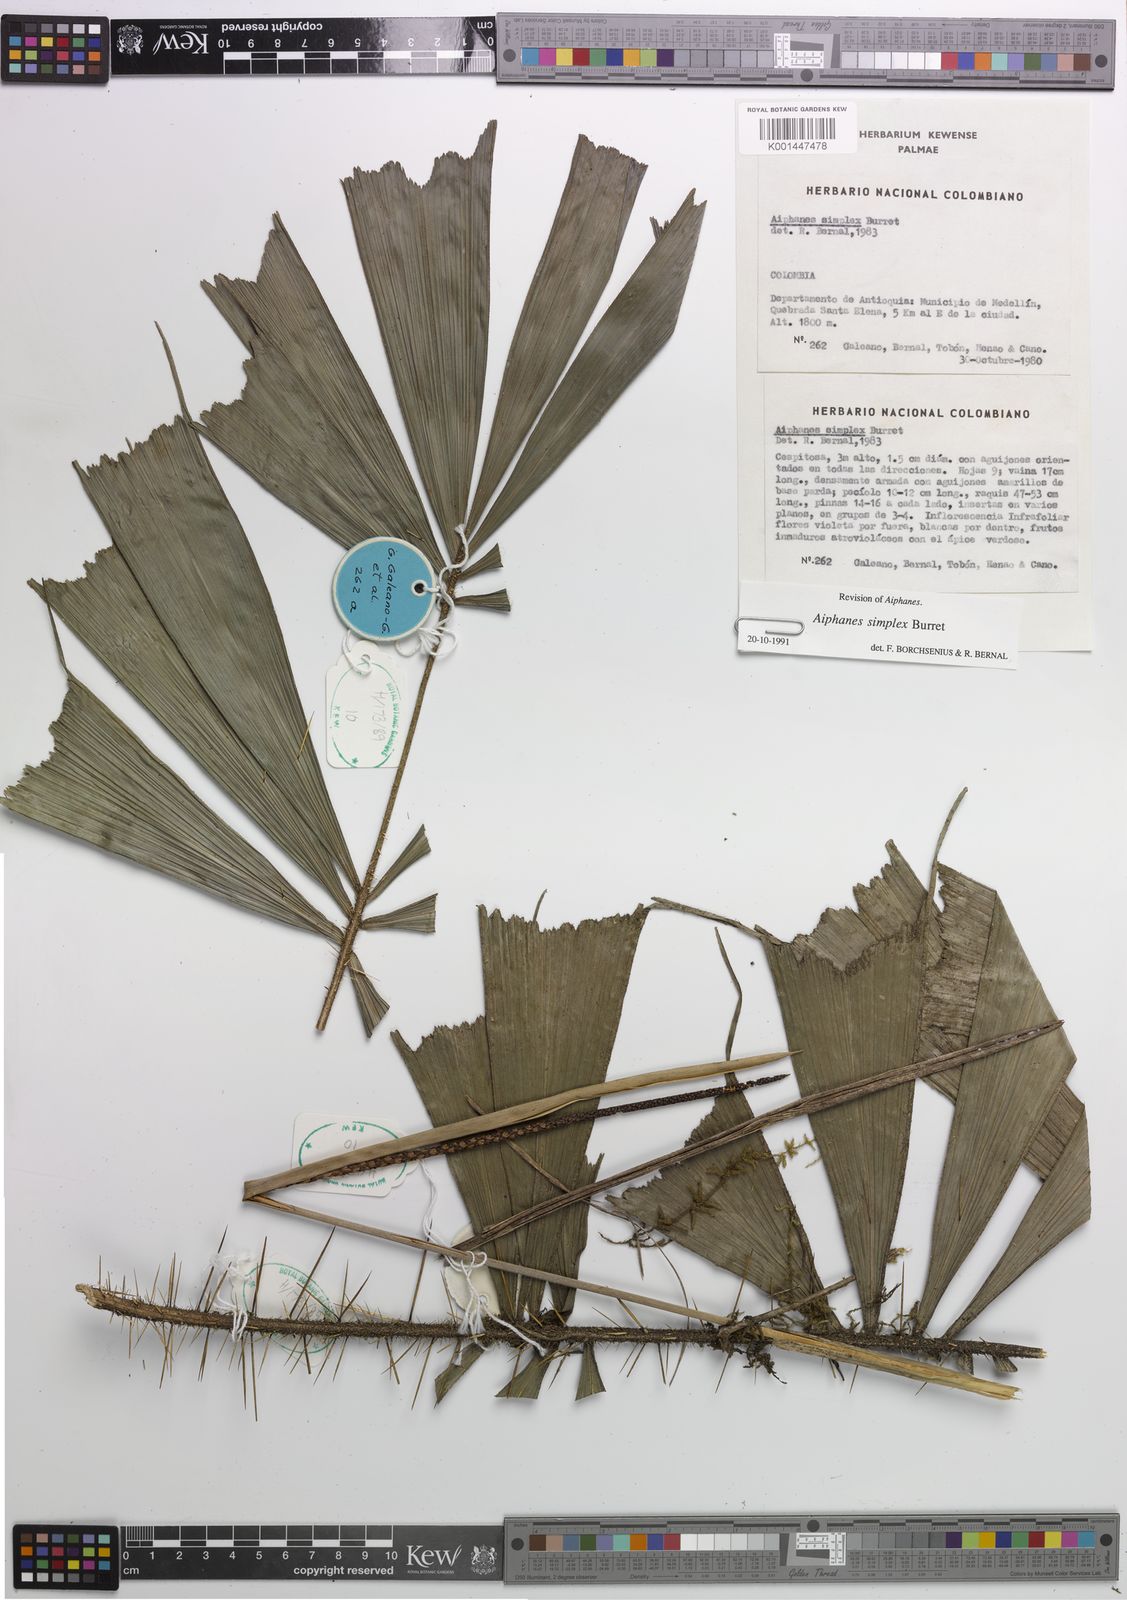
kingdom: Plantae
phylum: Tracheophyta
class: Liliopsida
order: Arecales
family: Arecaceae
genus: Aiphanes
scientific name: Aiphanes simplex
